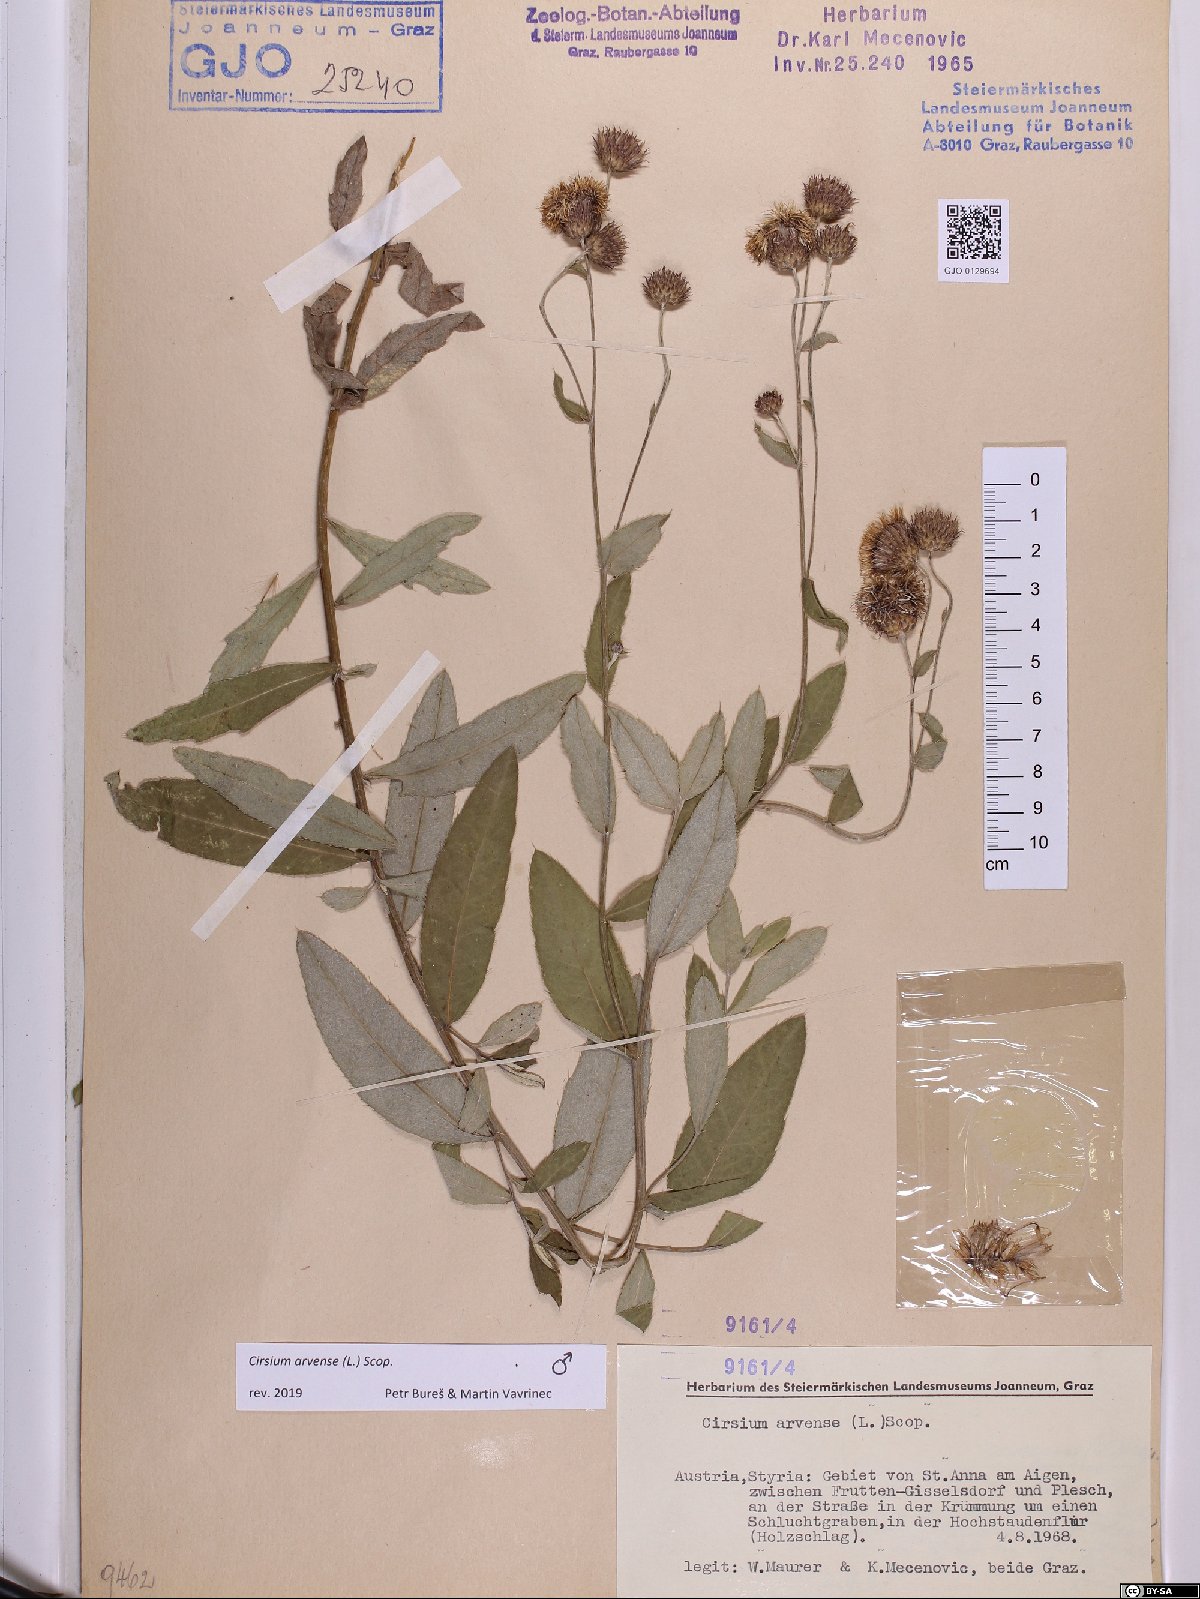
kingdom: Plantae
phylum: Tracheophyta
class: Magnoliopsida
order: Asterales
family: Asteraceae
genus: Cirsium
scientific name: Cirsium arvense
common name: Creeping thistle
